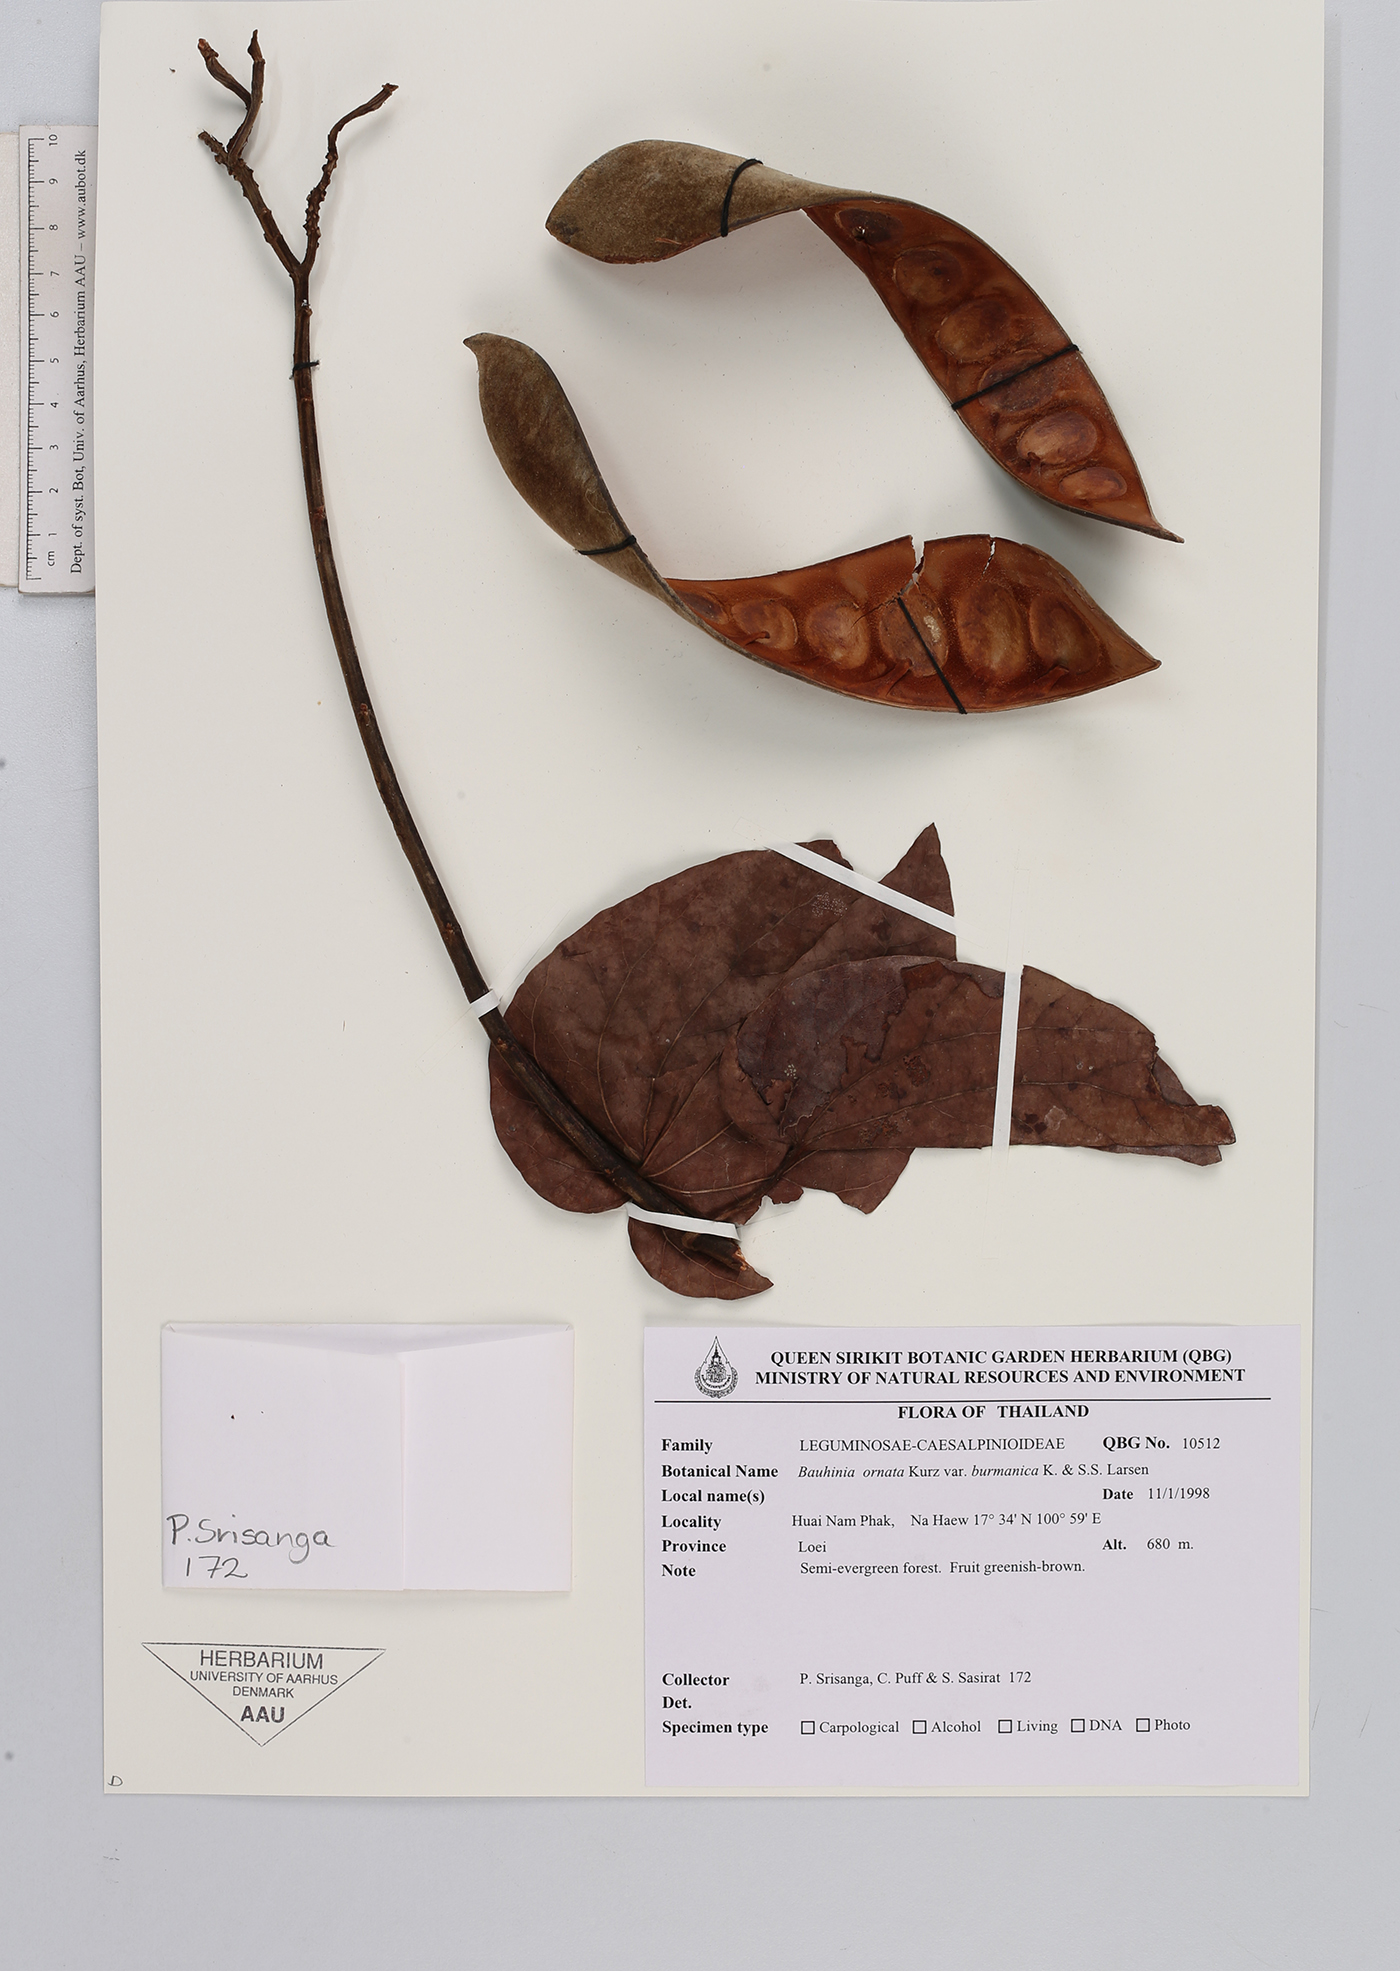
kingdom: Plantae
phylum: Tracheophyta
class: Magnoliopsida
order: Fabales
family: Fabaceae
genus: Phanera
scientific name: Phanera ornata
